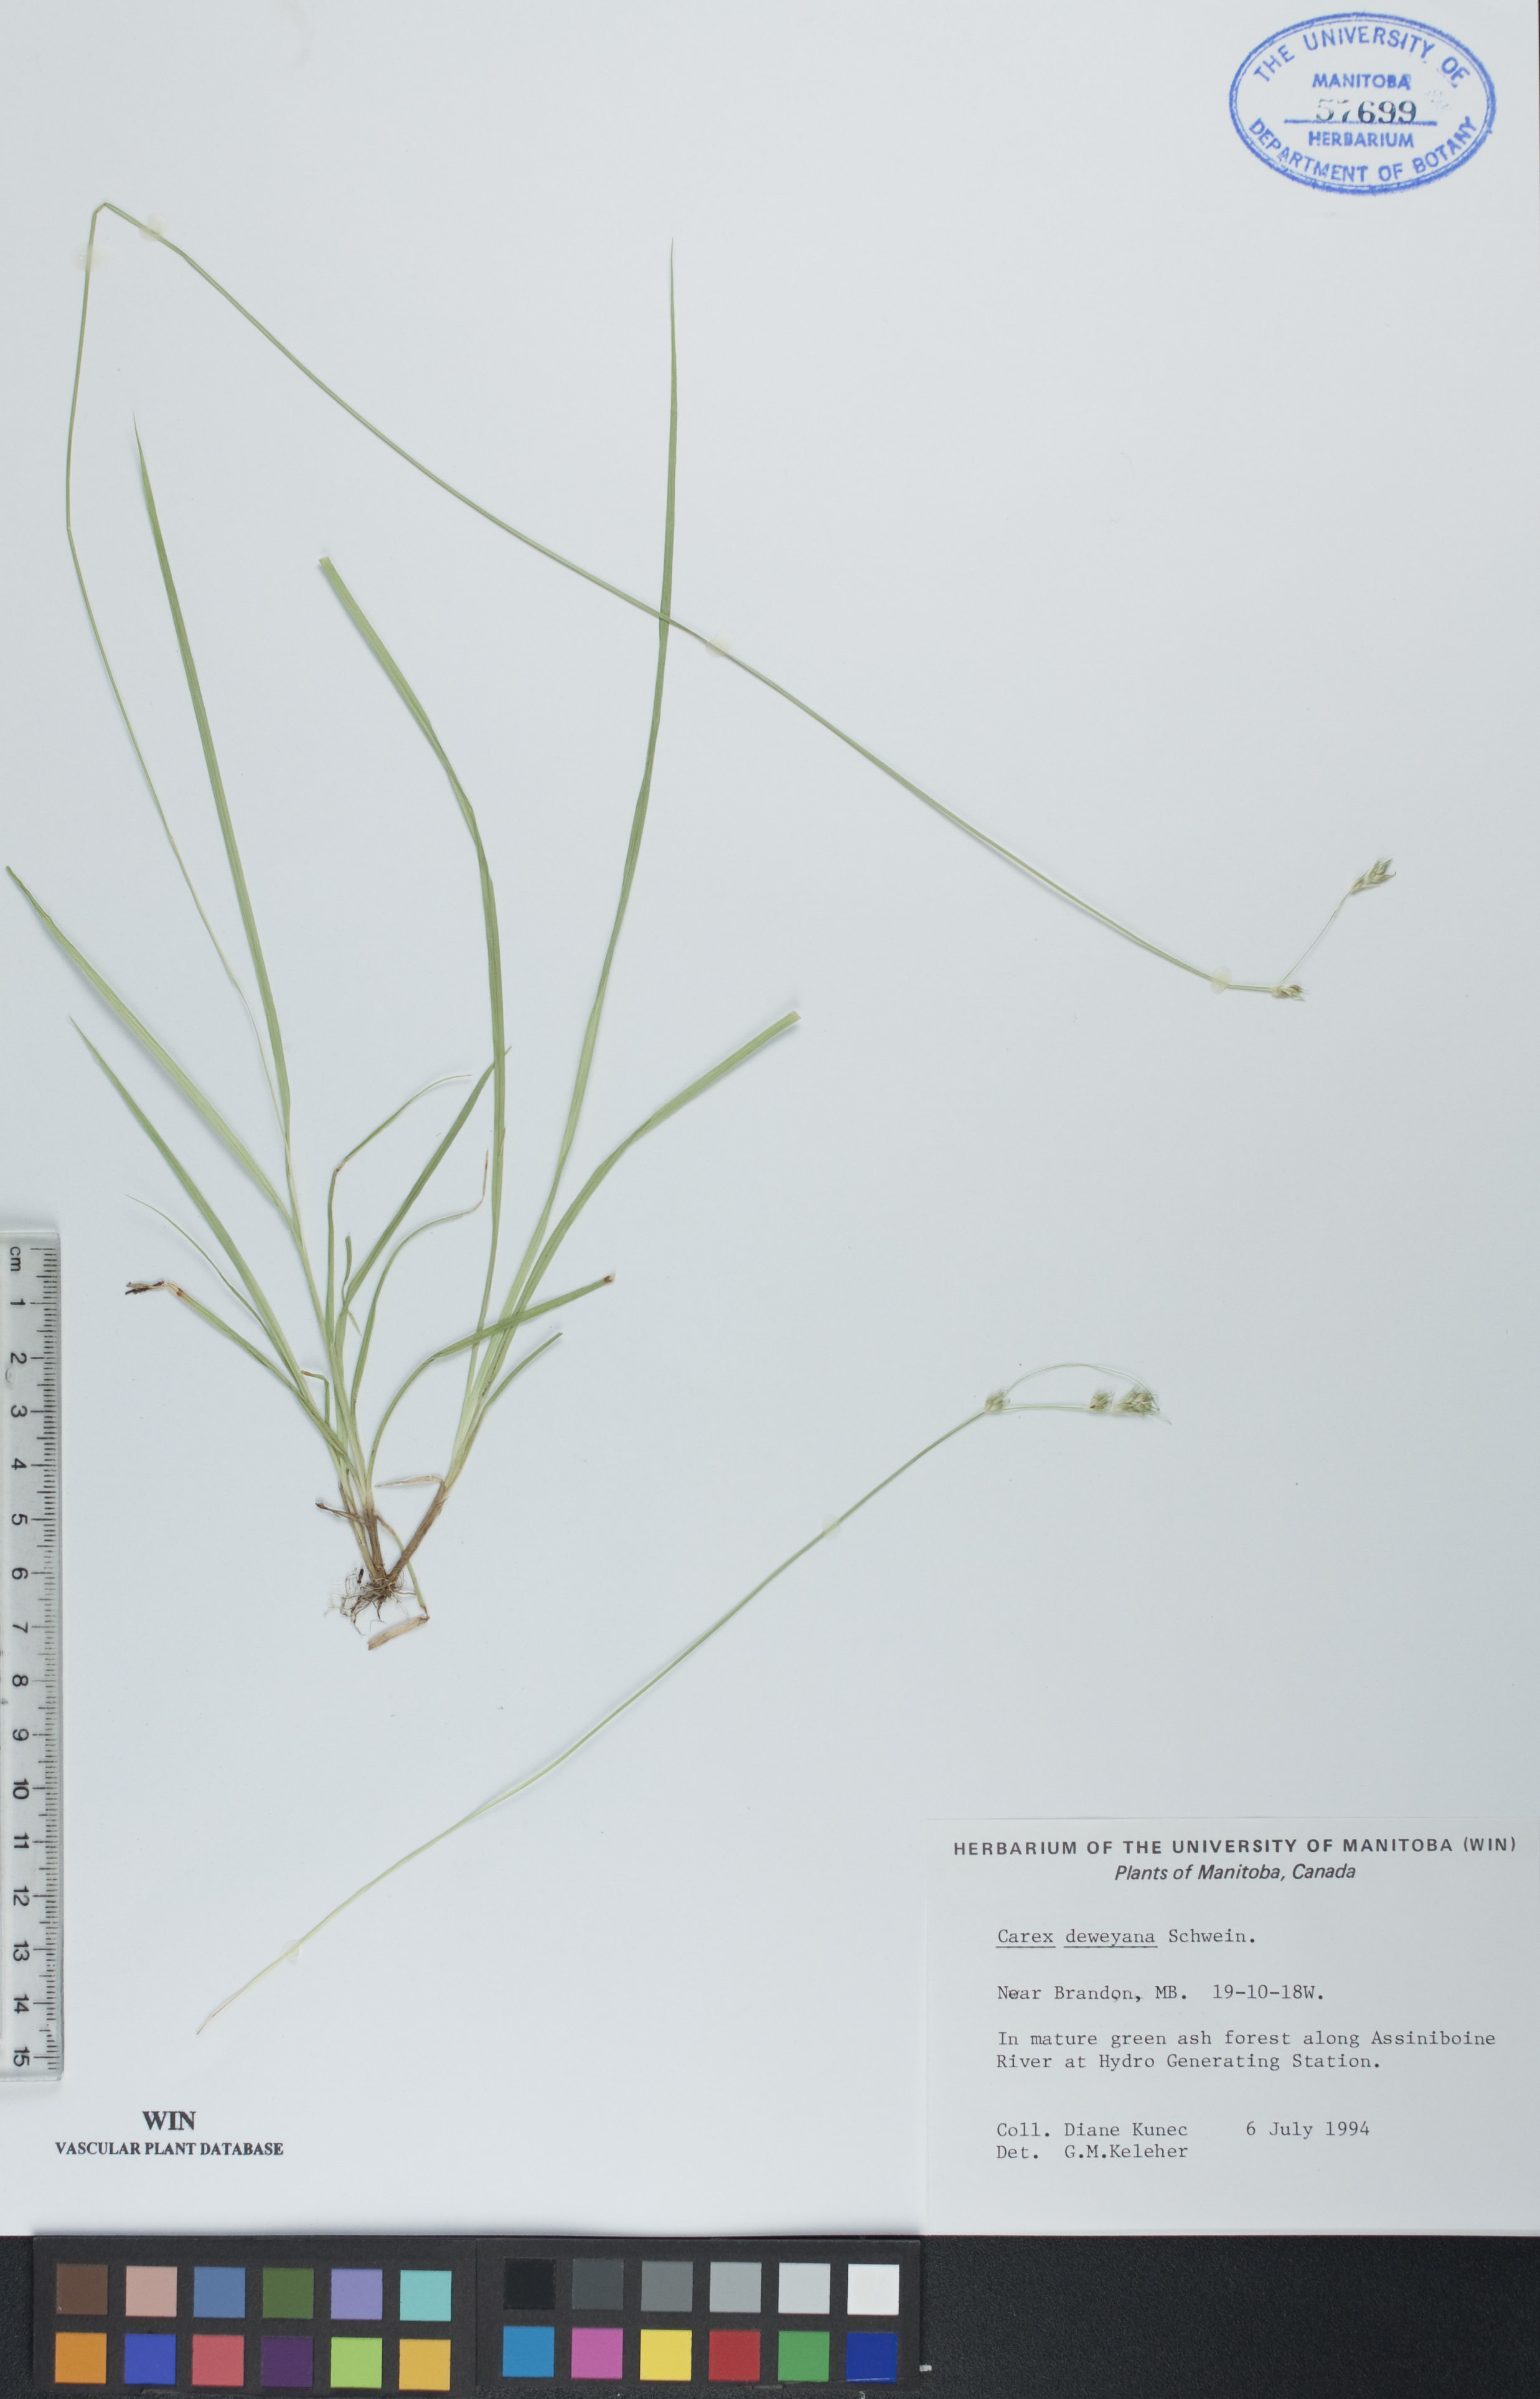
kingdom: Plantae
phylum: Tracheophyta
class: Liliopsida
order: Poales
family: Cyperaceae
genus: Carex
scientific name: Carex deweyana
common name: Dewey's sedge
